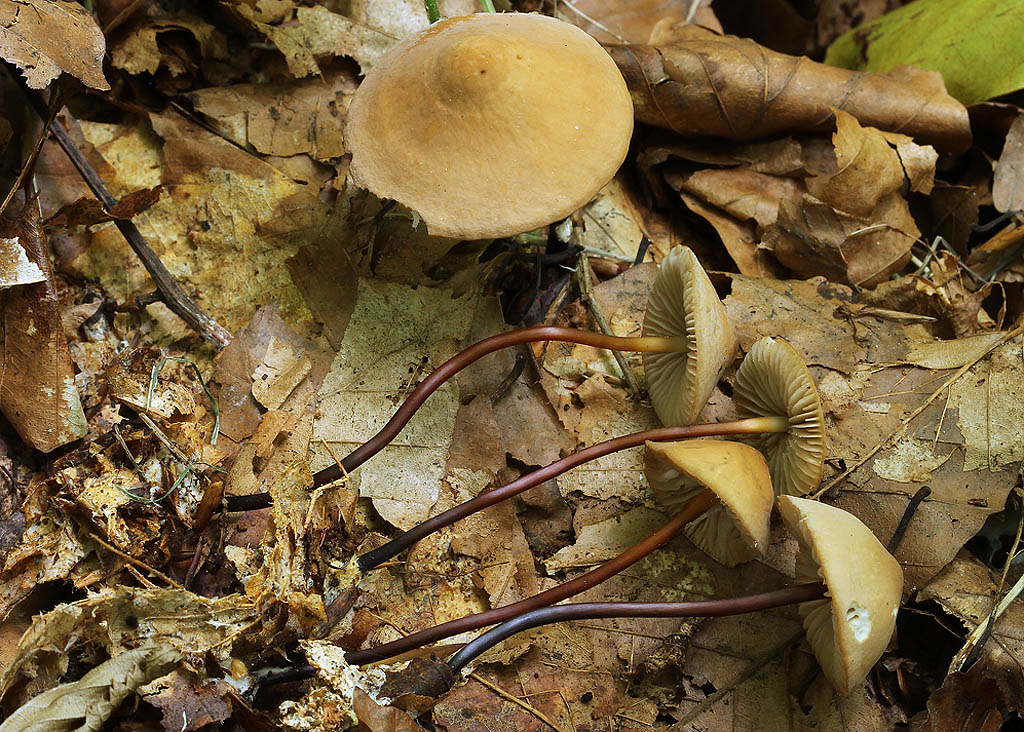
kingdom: Fungi
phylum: Basidiomycota
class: Agaricomycetes
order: Agaricales
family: Marasmiaceae
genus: Marasmius
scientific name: Marasmius cohaerens
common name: hornstokket bruskhat
